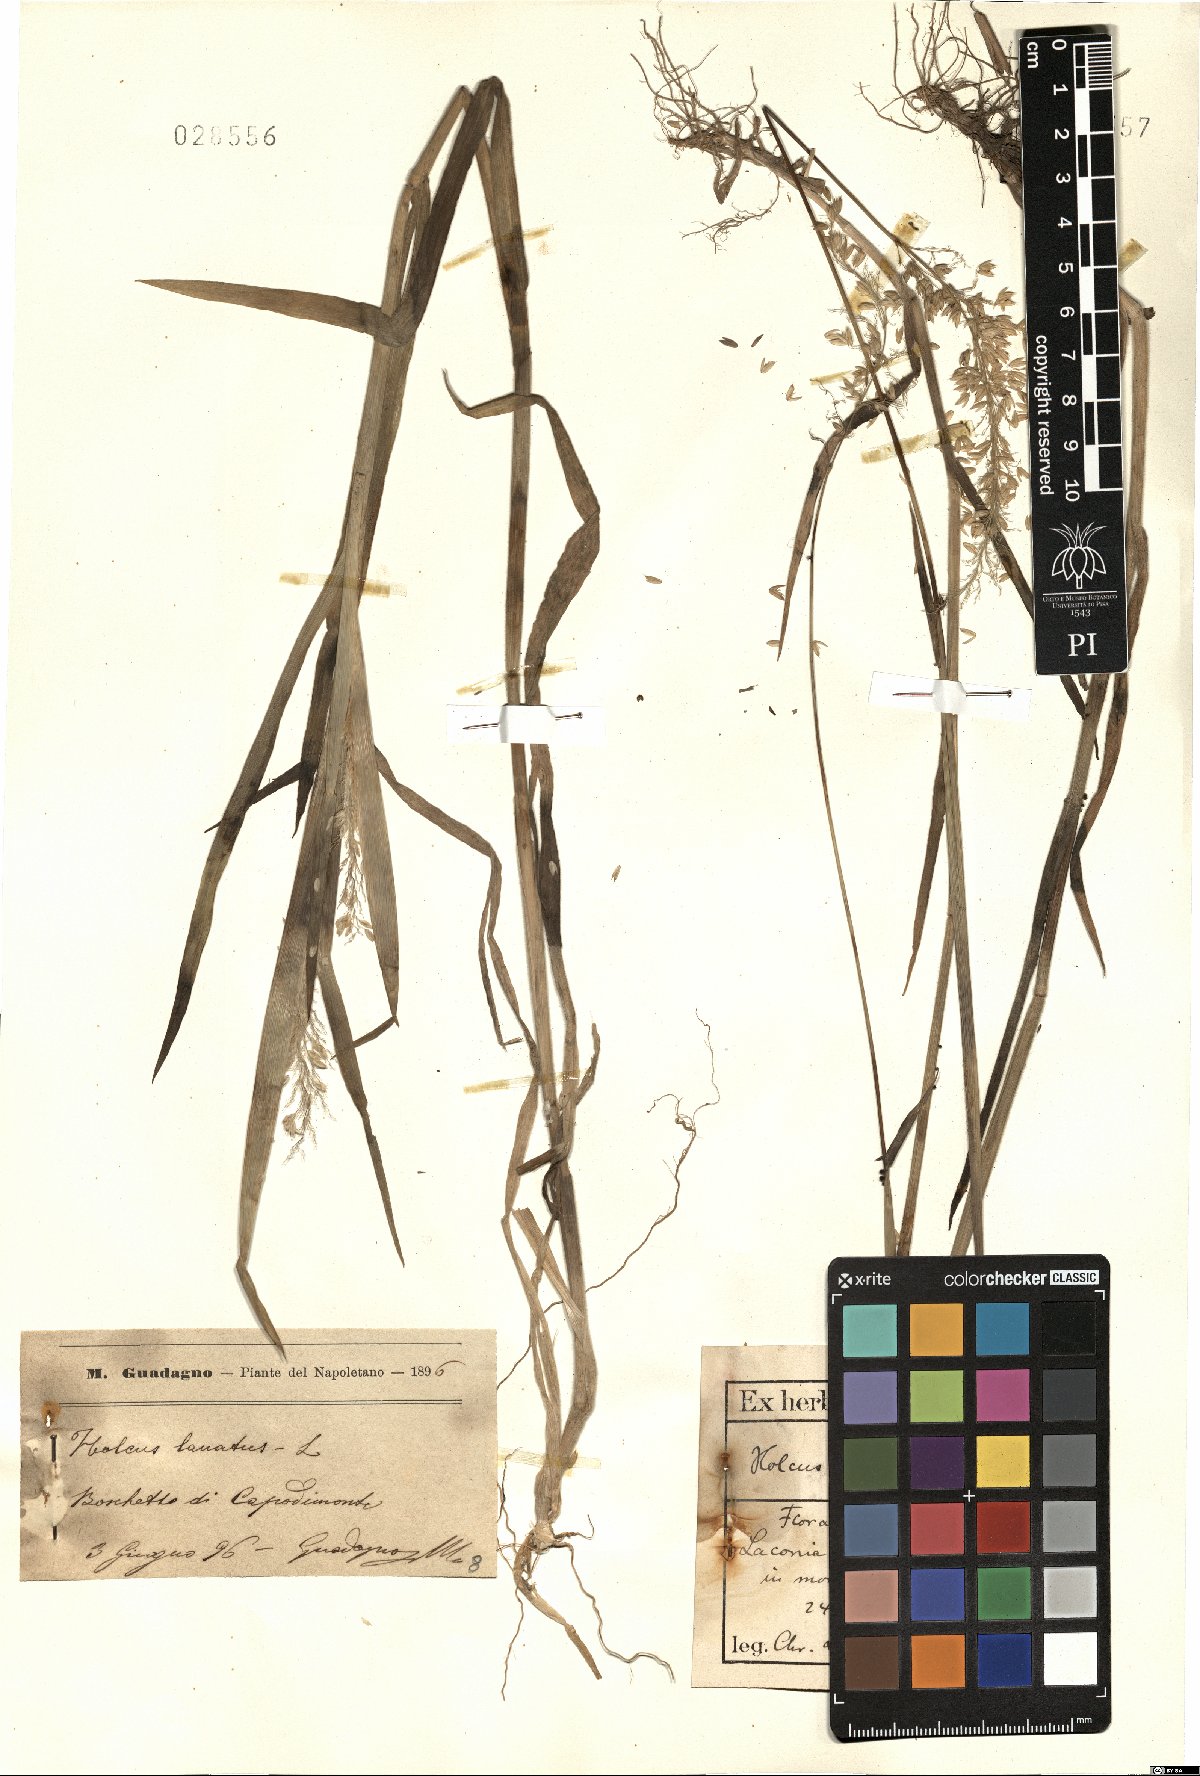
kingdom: Plantae
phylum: Tracheophyta
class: Liliopsida
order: Poales
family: Poaceae
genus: Holcus
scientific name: Holcus lanatus
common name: Yorkshire-fog
